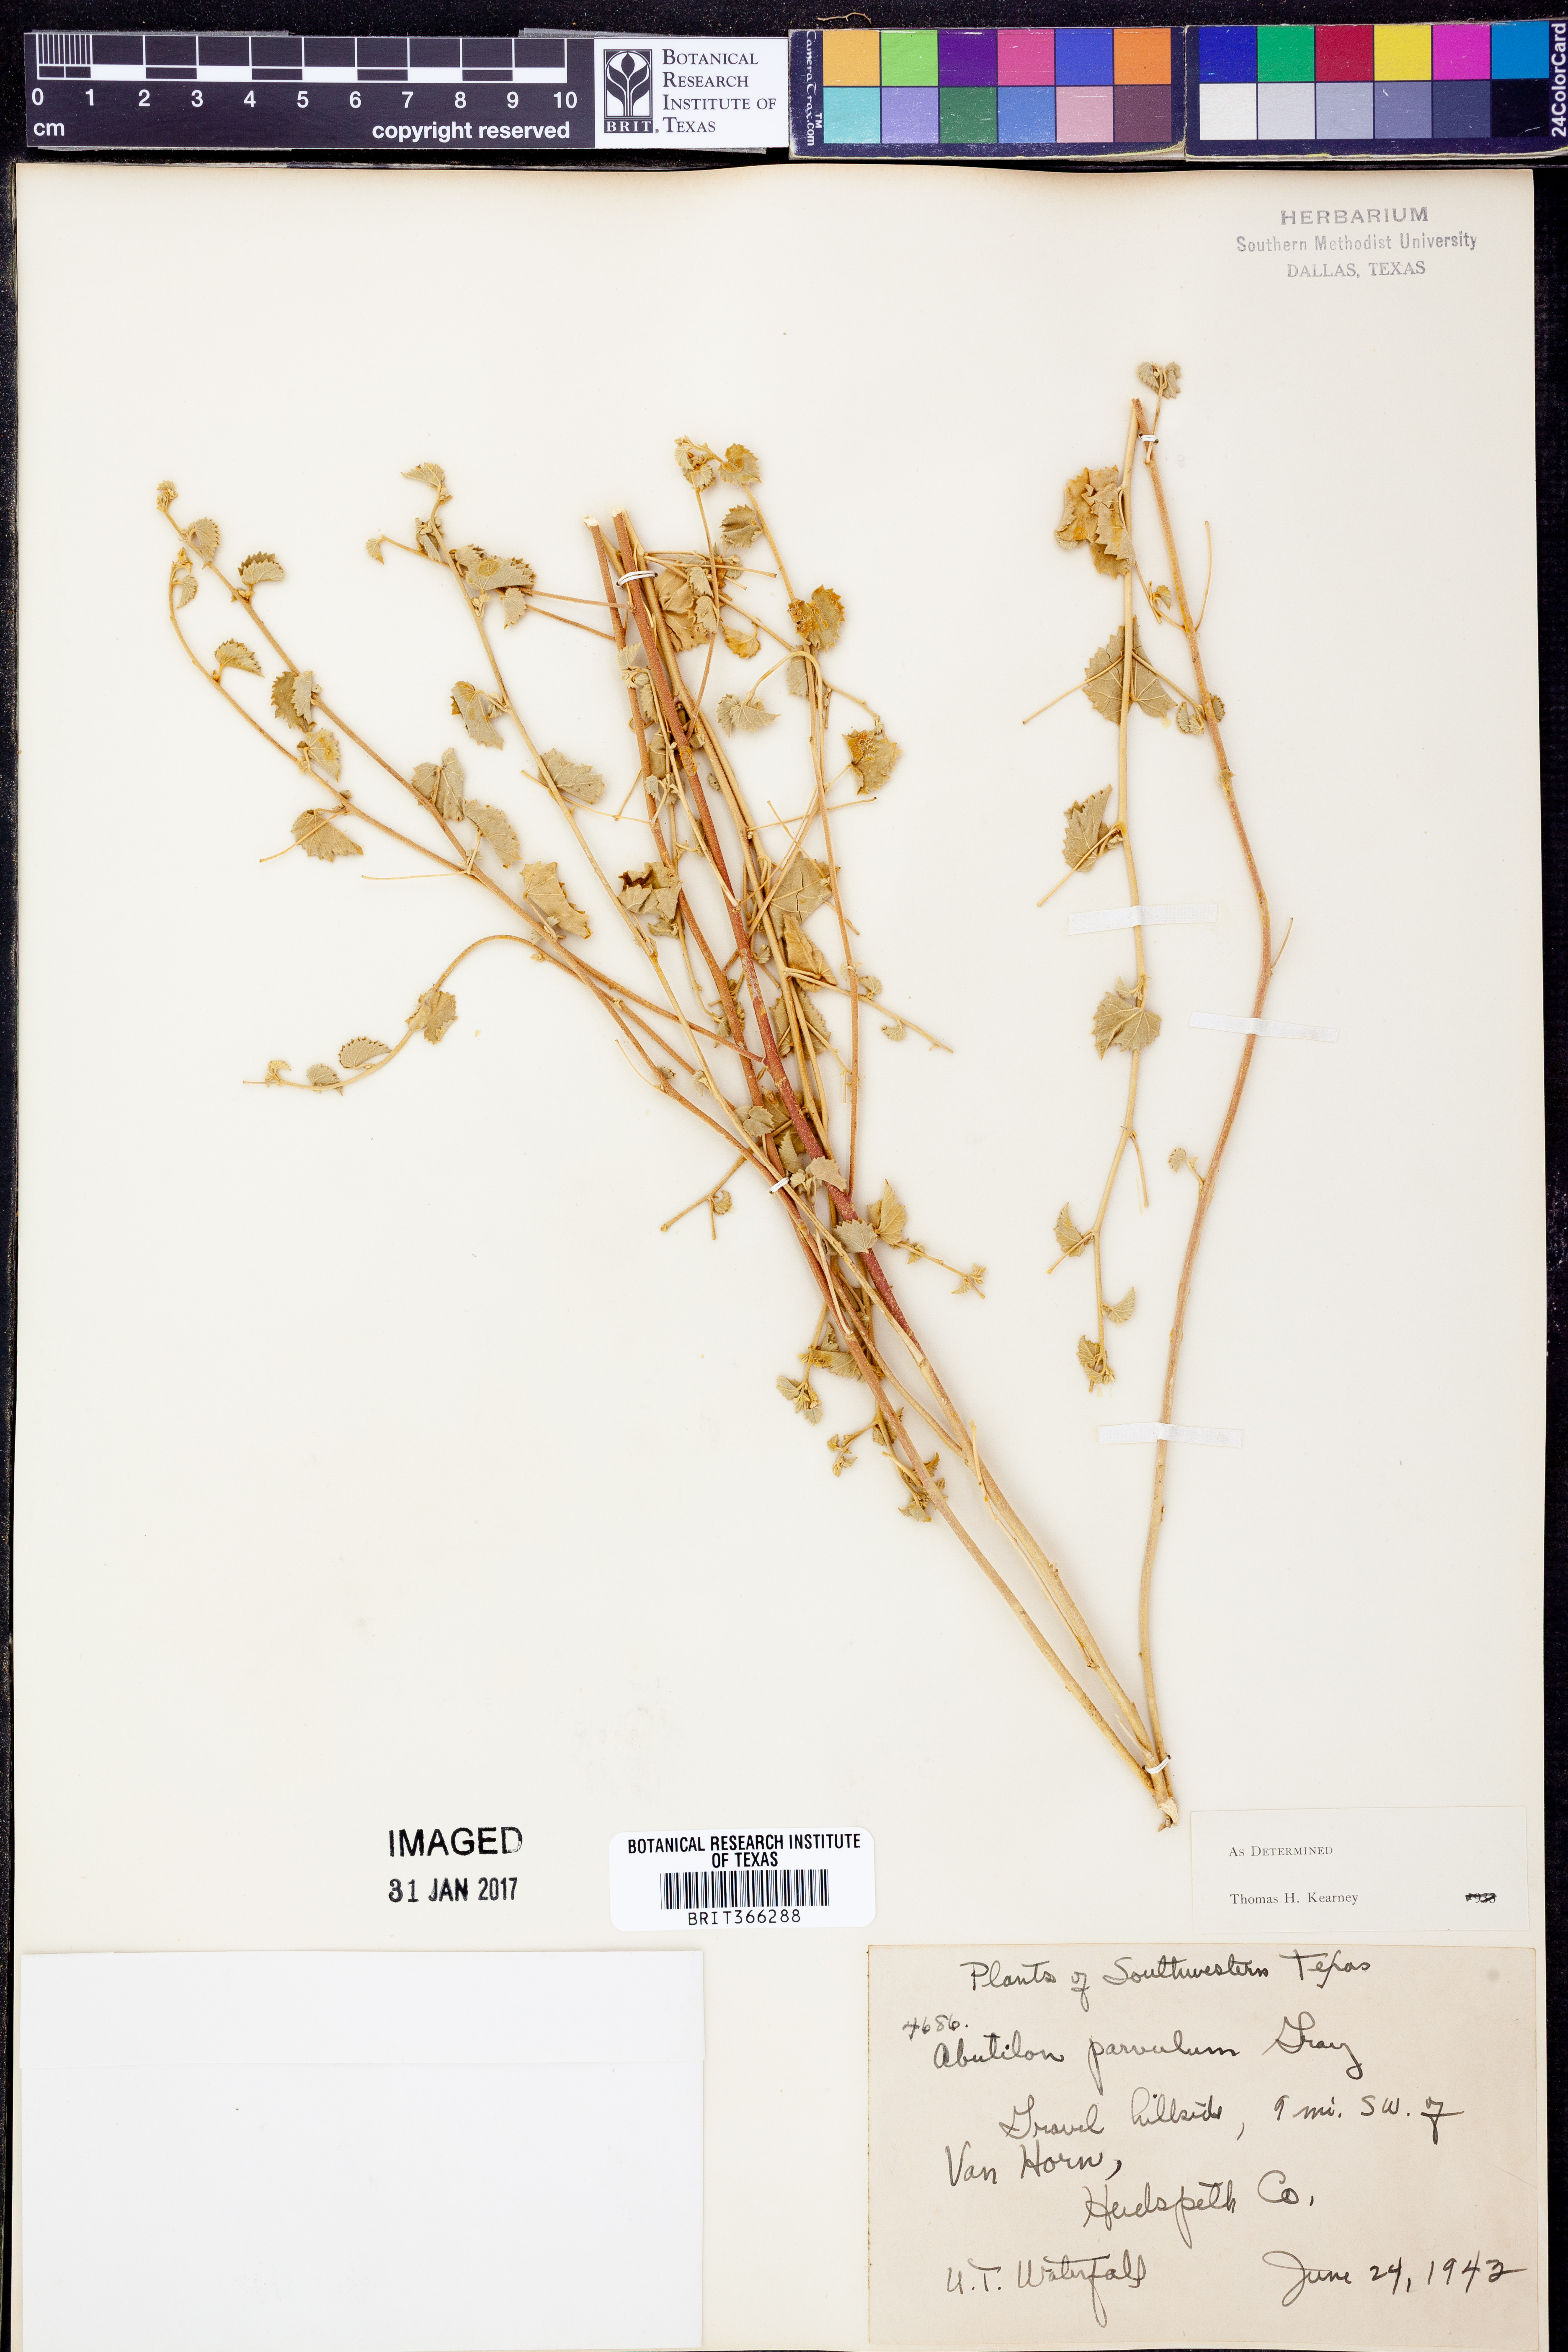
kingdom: Plantae
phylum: Tracheophyta
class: Magnoliopsida
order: Malvales
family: Malvaceae
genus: Abutilon
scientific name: Abutilon parvulum
